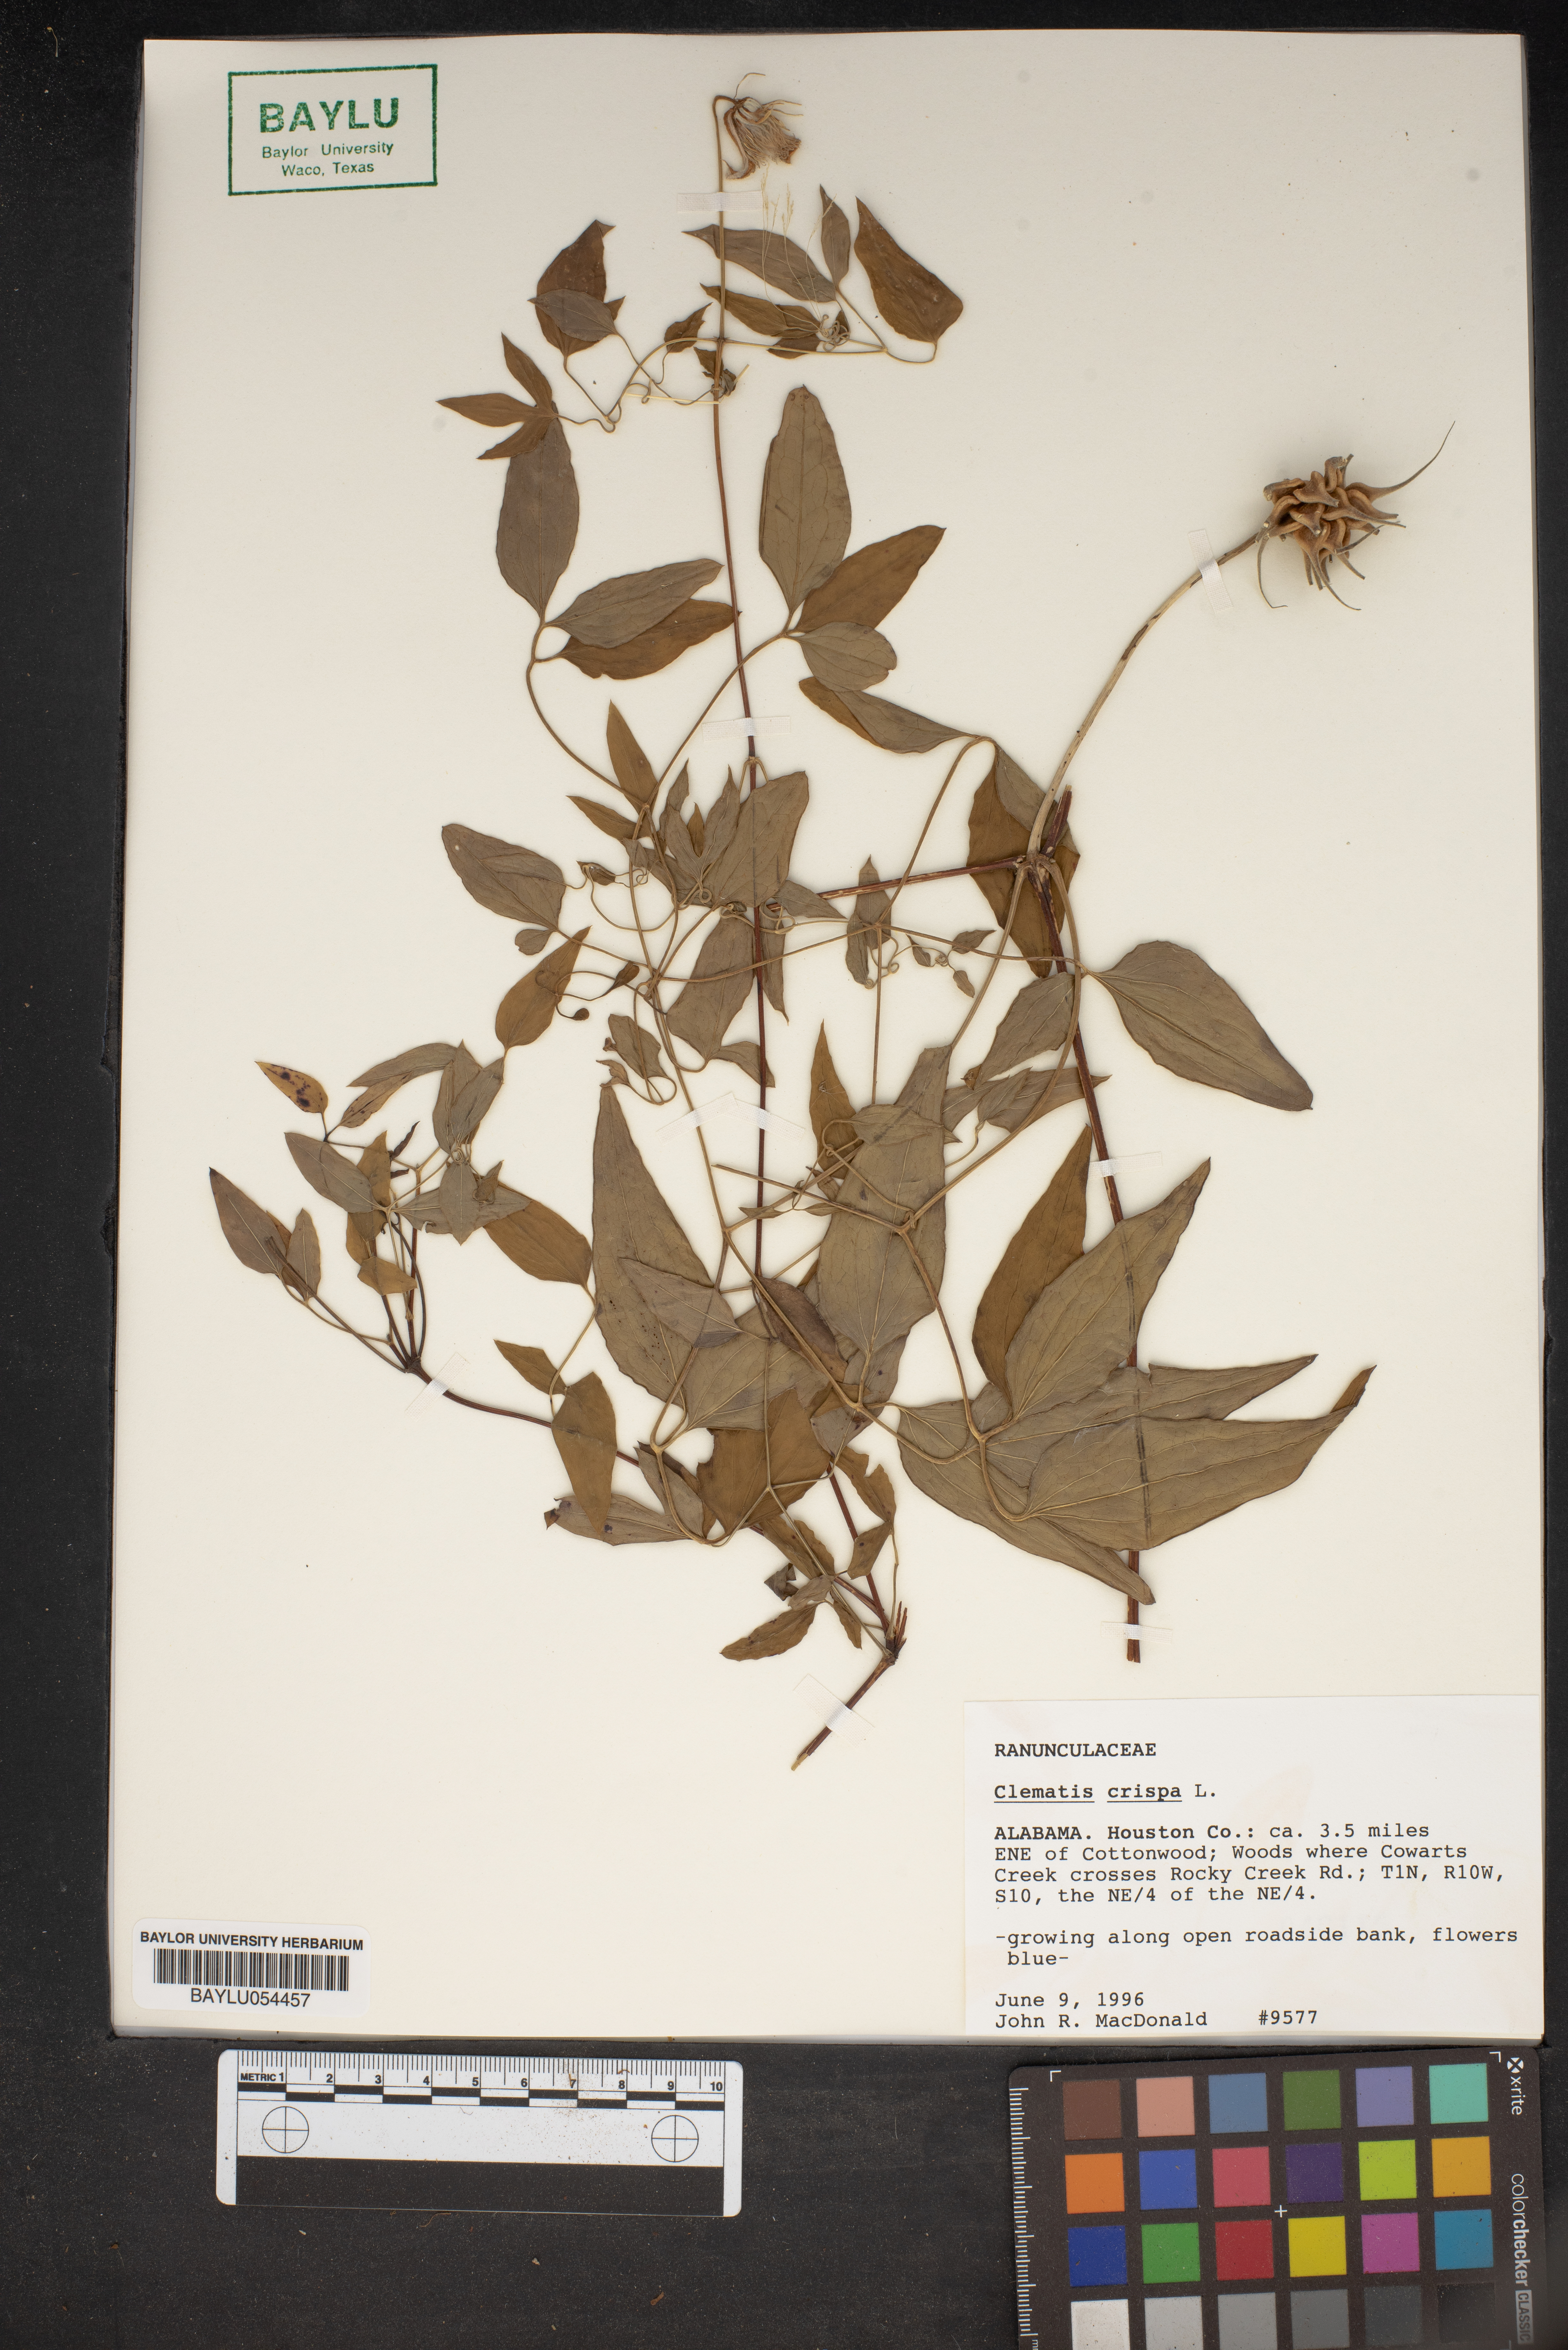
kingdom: Plantae
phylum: Tracheophyta
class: Magnoliopsida
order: Ranunculales
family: Ranunculaceae
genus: Clematis
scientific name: Clematis crispa
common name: Curly clematis
